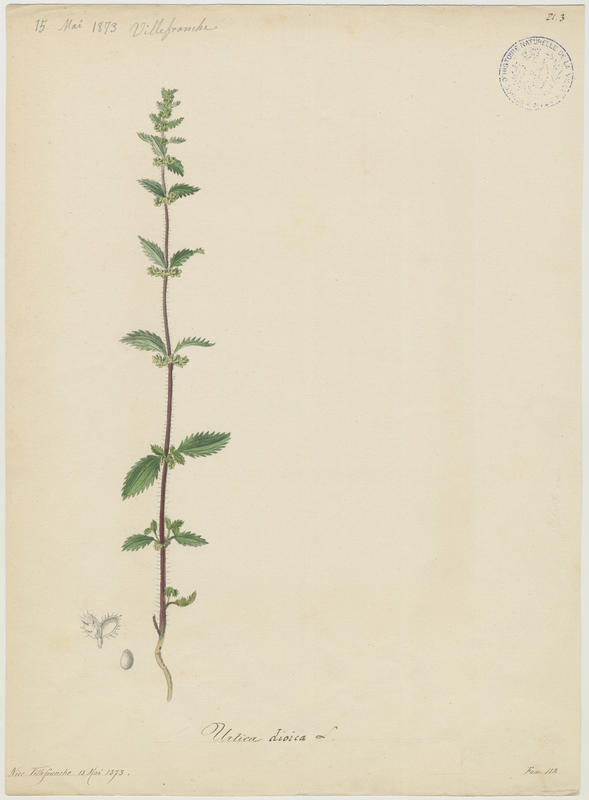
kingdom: Plantae
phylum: Tracheophyta
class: Magnoliopsida
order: Rosales
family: Urticaceae
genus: Urtica
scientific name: Urtica dioica
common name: Common nettle
